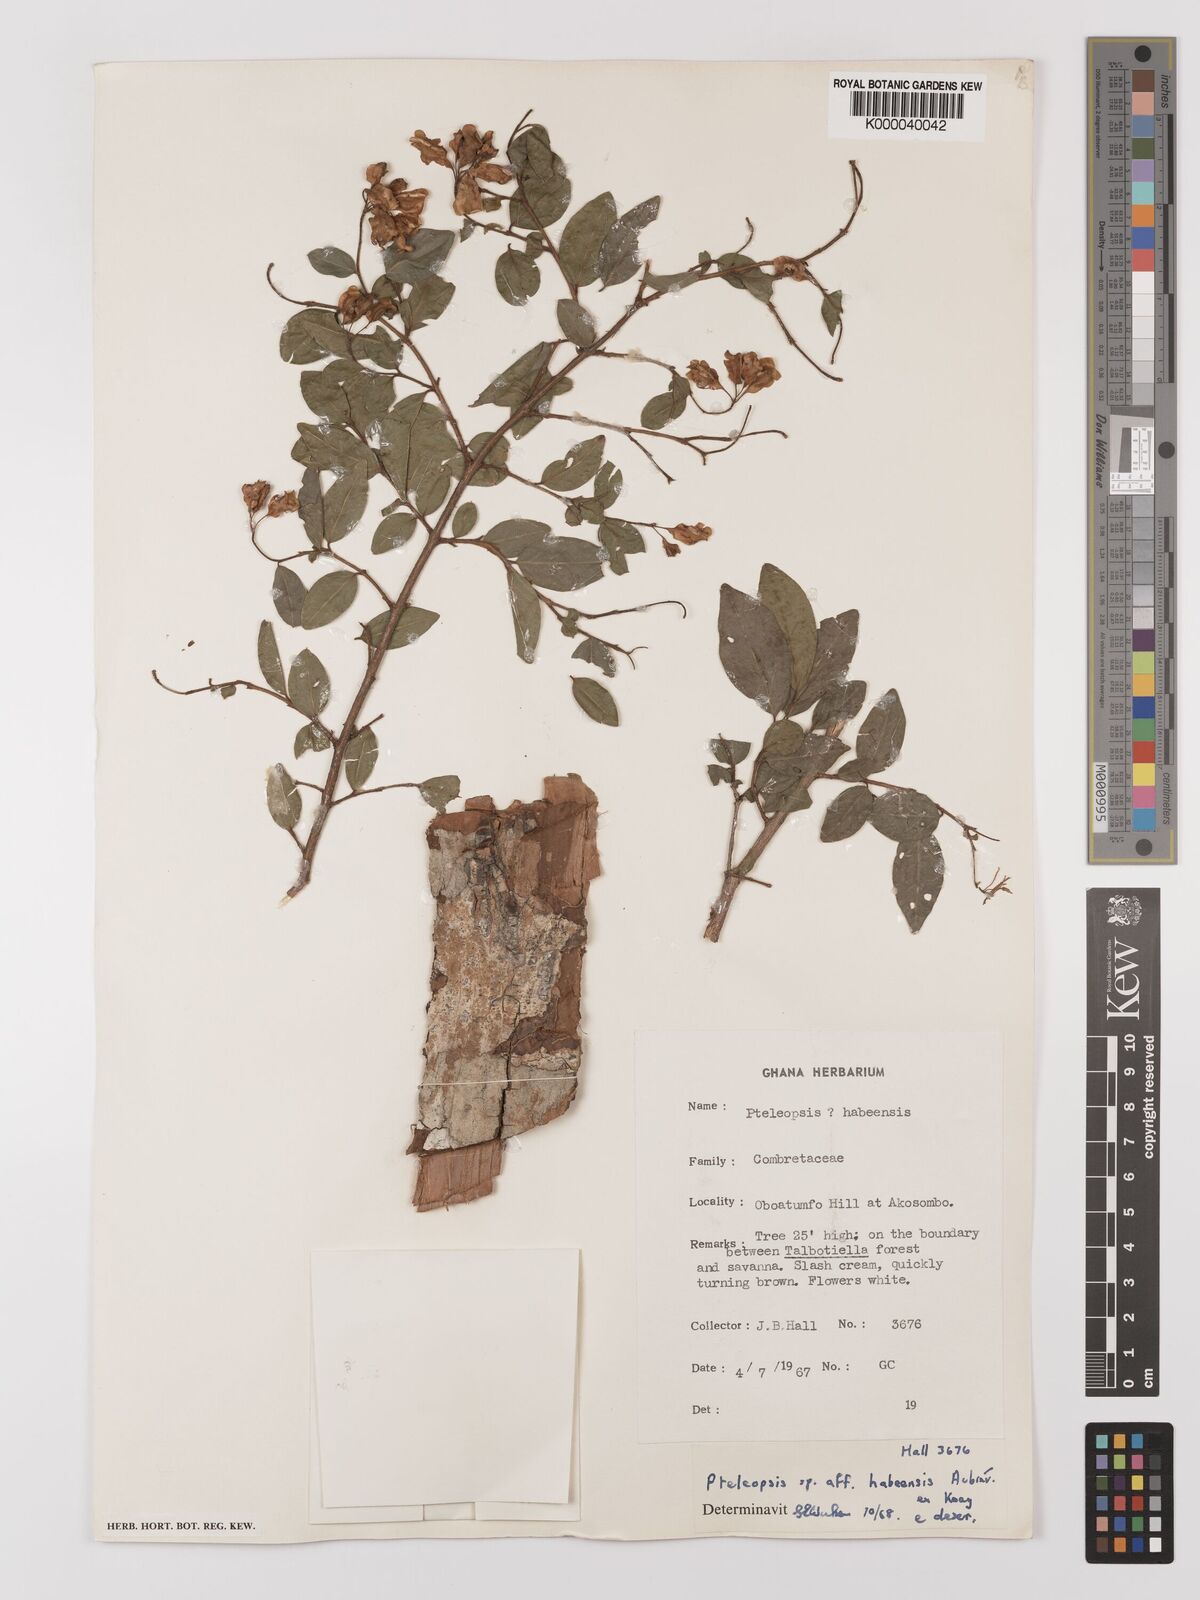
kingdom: Plantae
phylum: Tracheophyta
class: Magnoliopsida
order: Myrtales
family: Combretaceae
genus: Terminalia
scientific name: Terminalia
